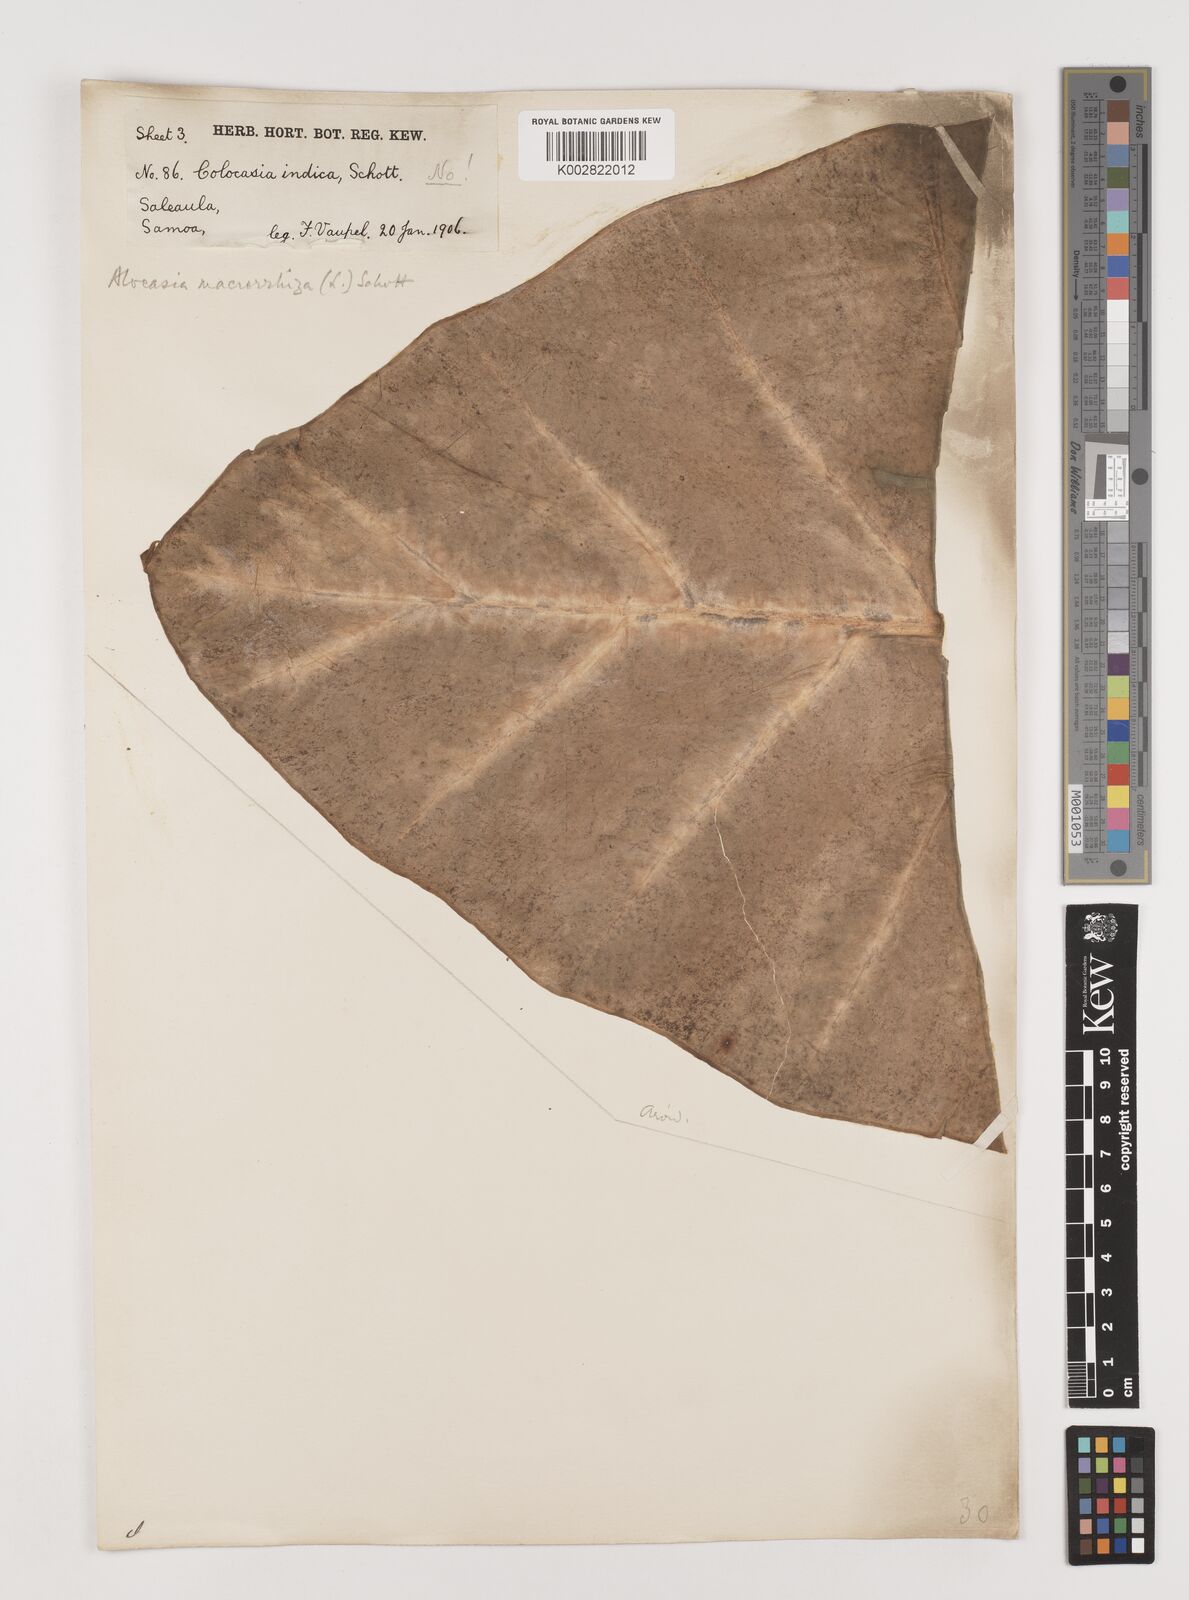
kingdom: Plantae
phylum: Tracheophyta
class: Liliopsida
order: Alismatales
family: Araceae
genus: Alocasia
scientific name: Alocasia macrorrhizos
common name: Giant taro
